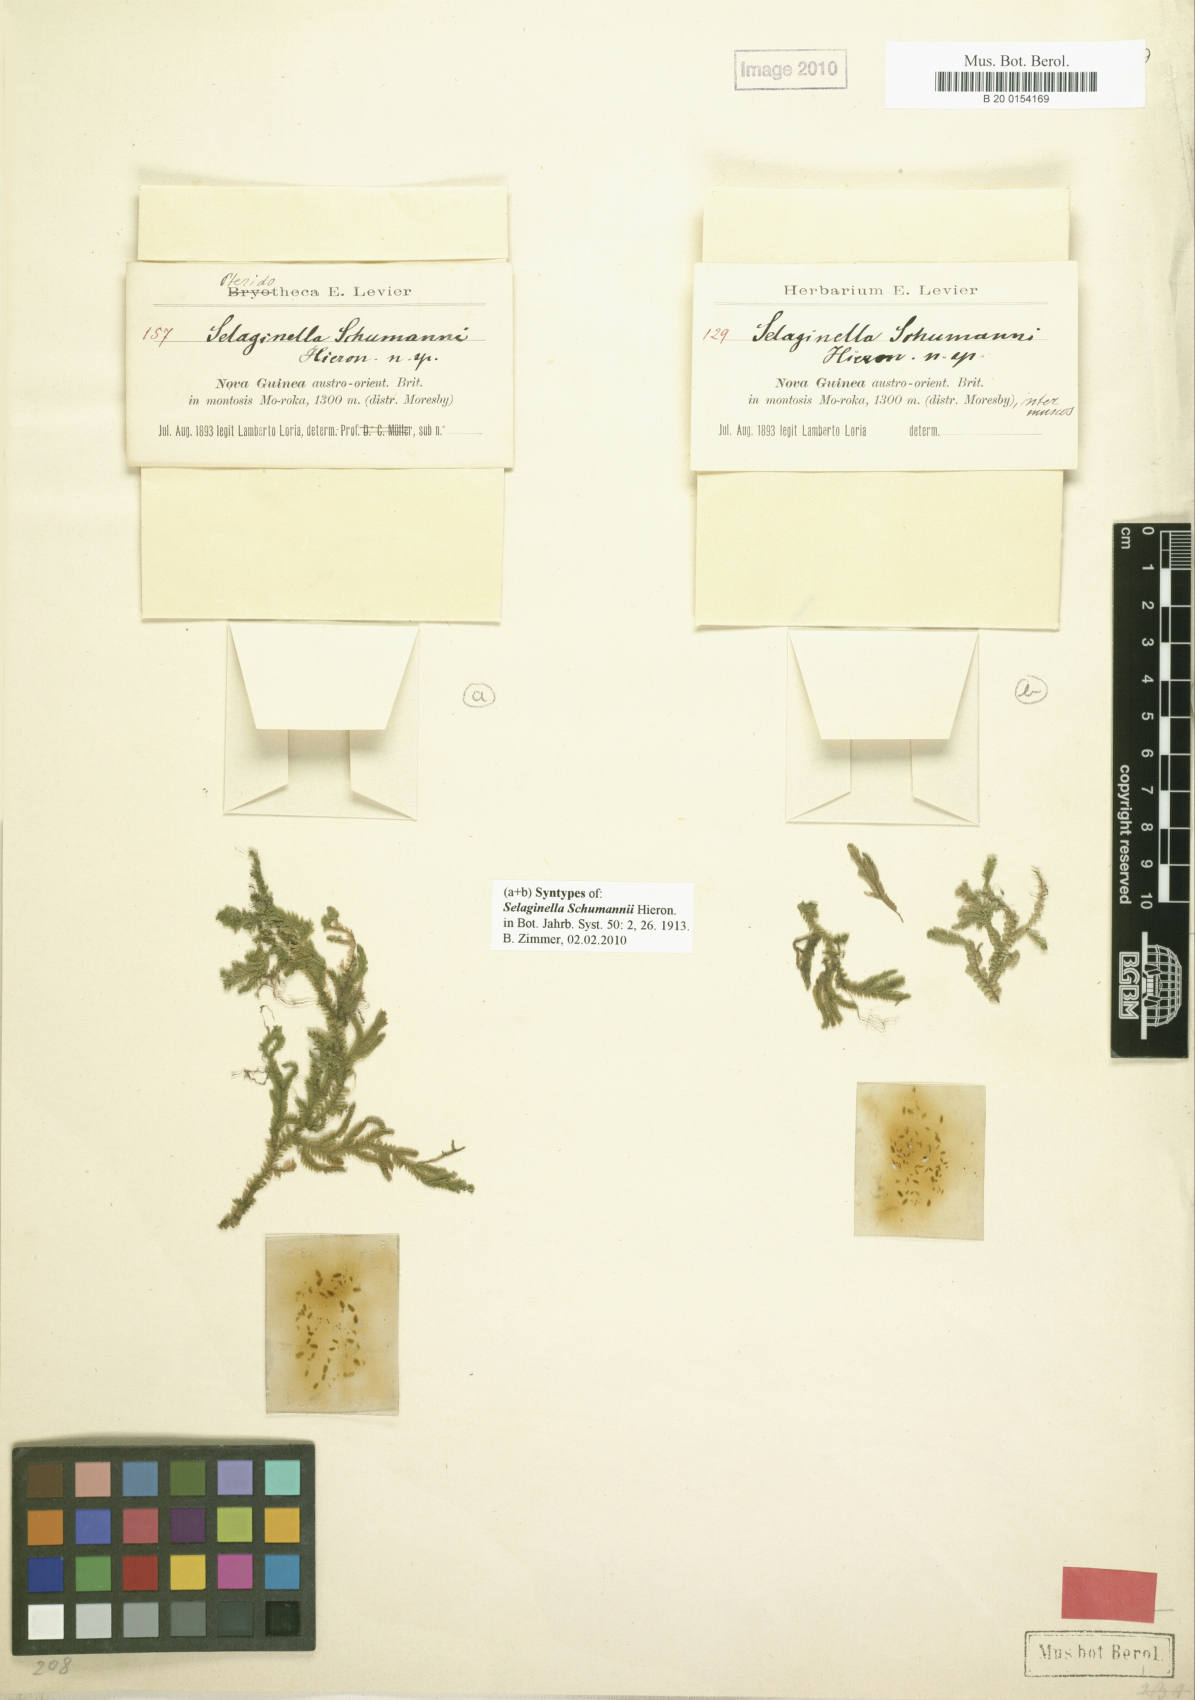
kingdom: Plantae
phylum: Tracheophyta
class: Lycopodiopsida
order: Selaginellales
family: Selaginellaceae
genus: Selaginella
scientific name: Selaginella schumannii
